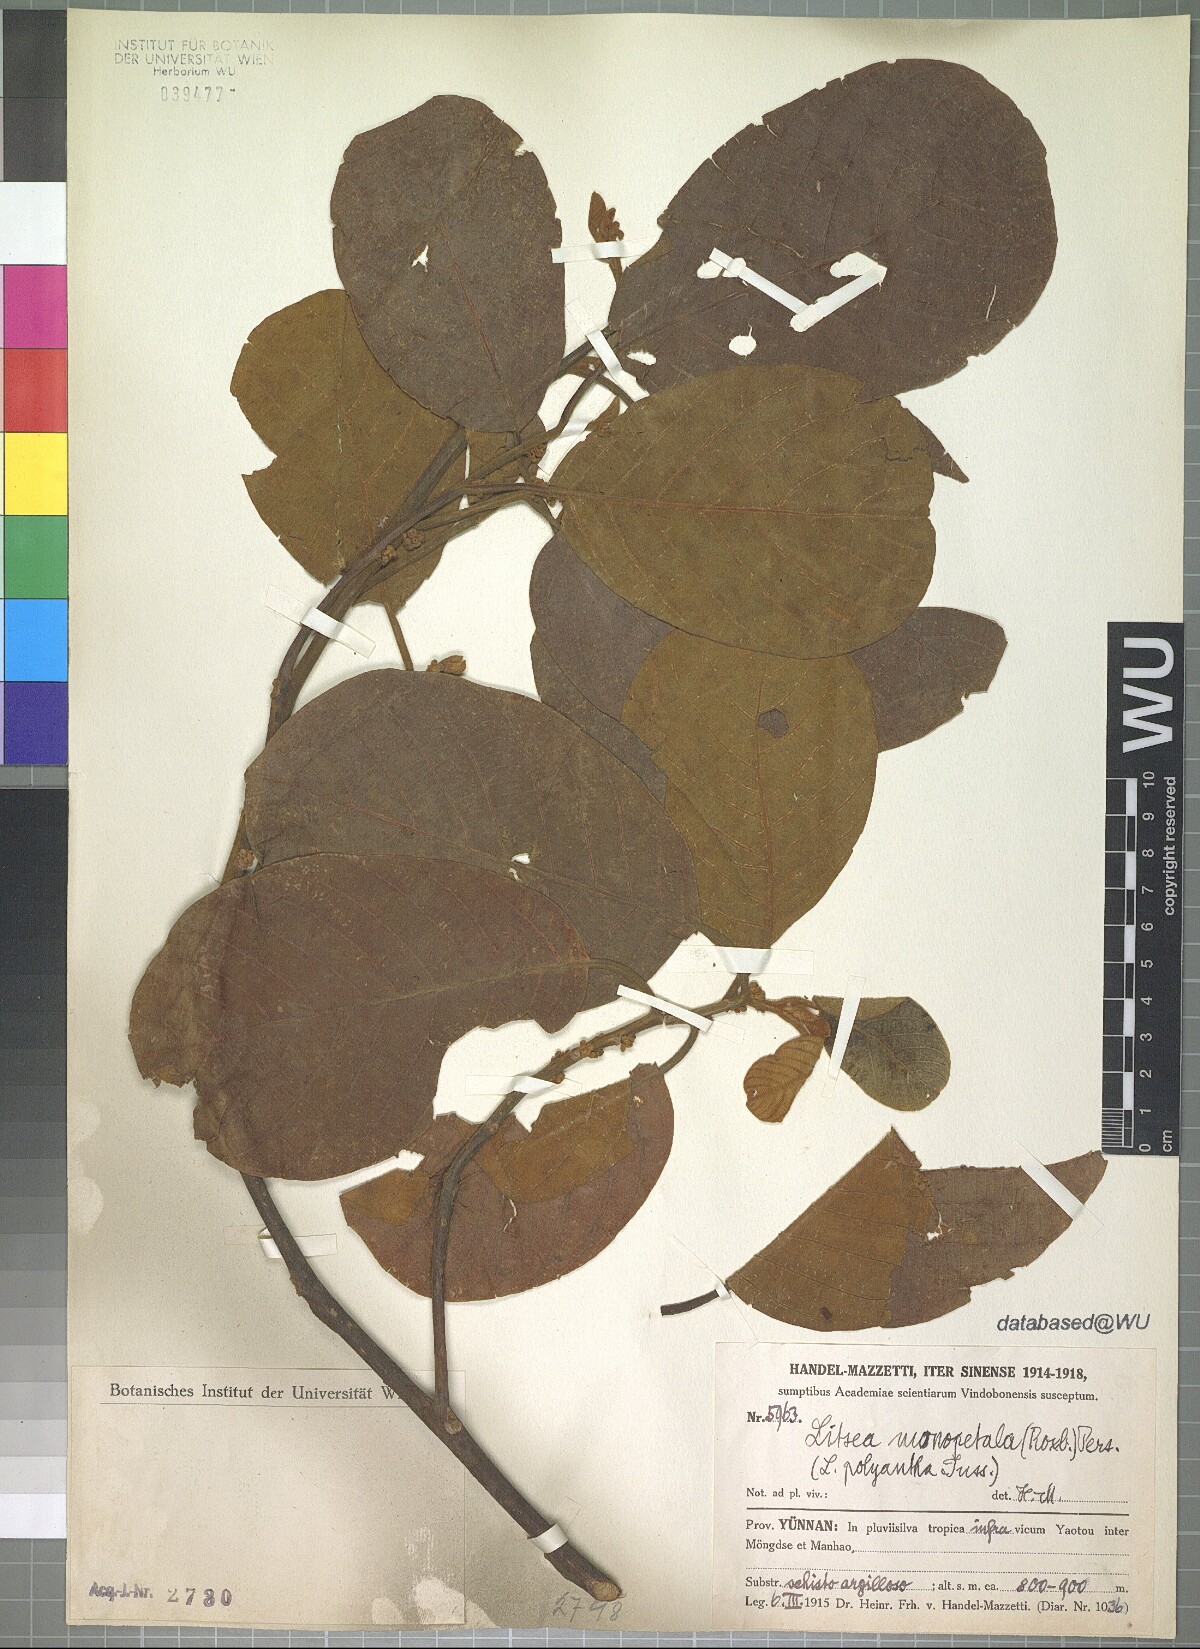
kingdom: Plantae
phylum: Tracheophyta
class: Magnoliopsida
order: Laurales
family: Lauraceae
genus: Litsea
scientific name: Litsea monopetala
